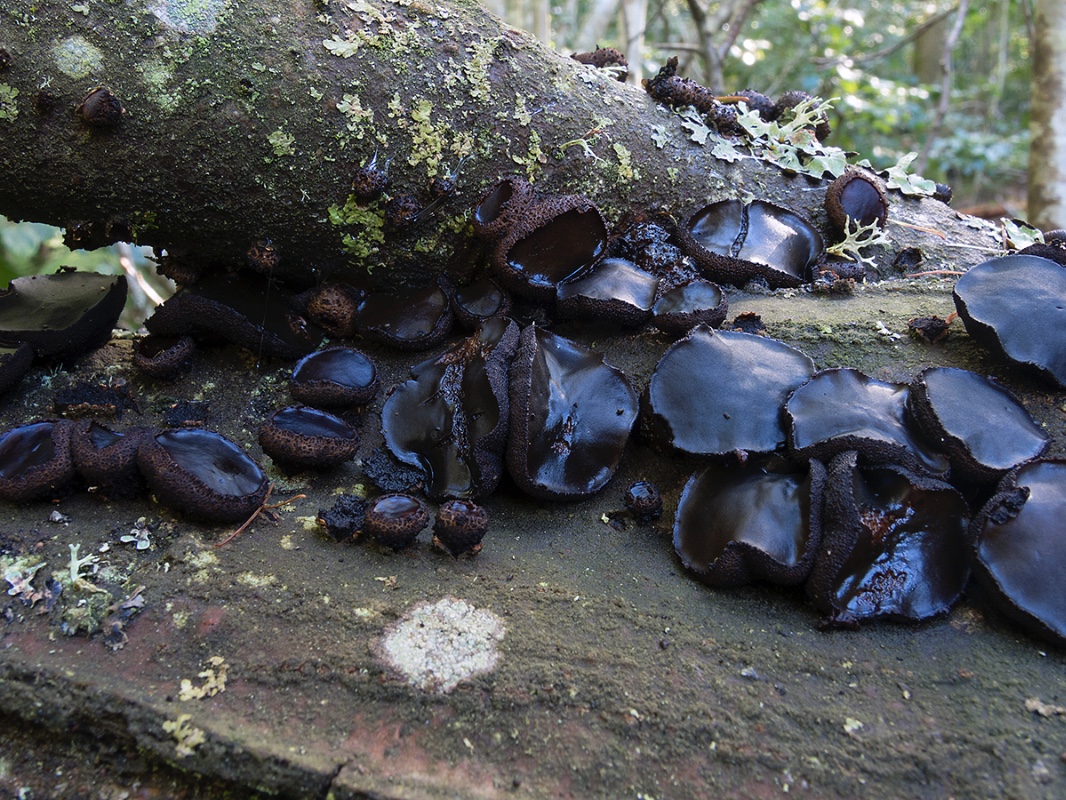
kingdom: Fungi
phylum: Ascomycota
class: Leotiomycetes
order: Phacidiales
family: Phacidiaceae
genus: Bulgaria
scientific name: Bulgaria inquinans
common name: afsmittende topsvamp
